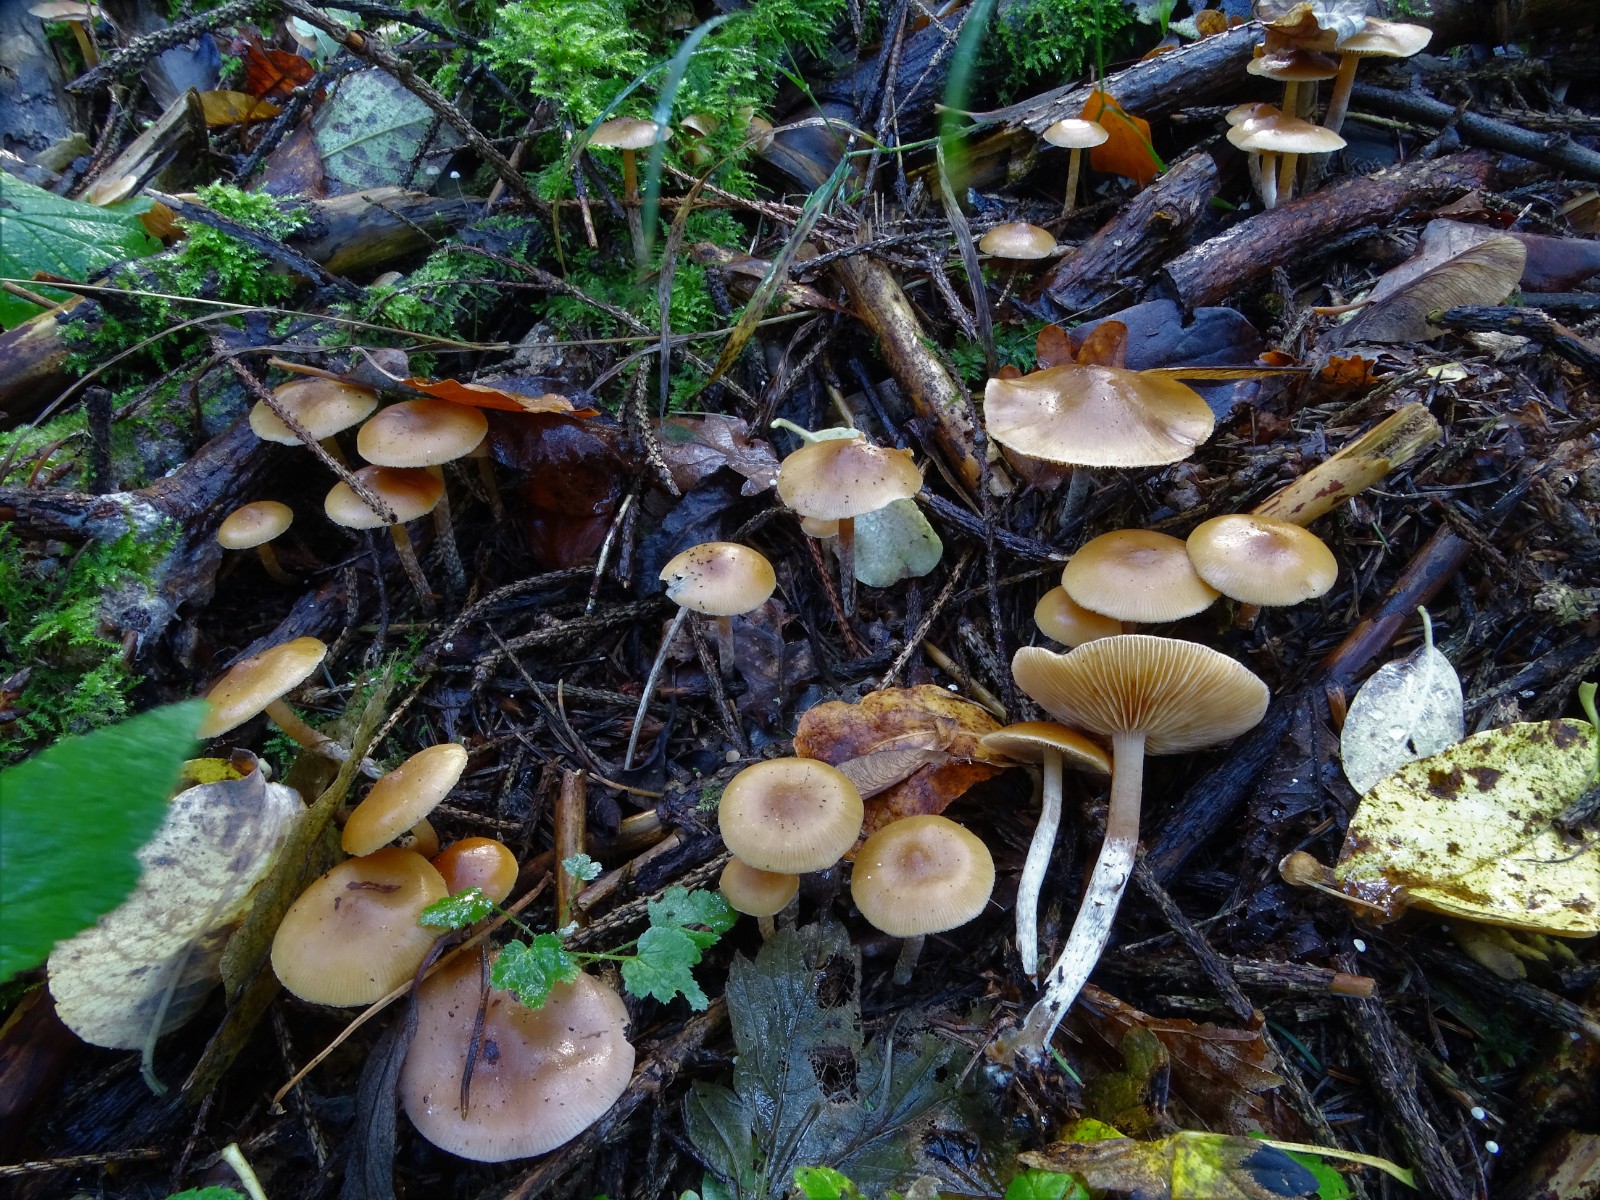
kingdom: Fungi
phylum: Basidiomycota
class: Agaricomycetes
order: Agaricales
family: Hymenogastraceae
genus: Galerina
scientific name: Galerina sideroides
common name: træflis-hjelmhat
